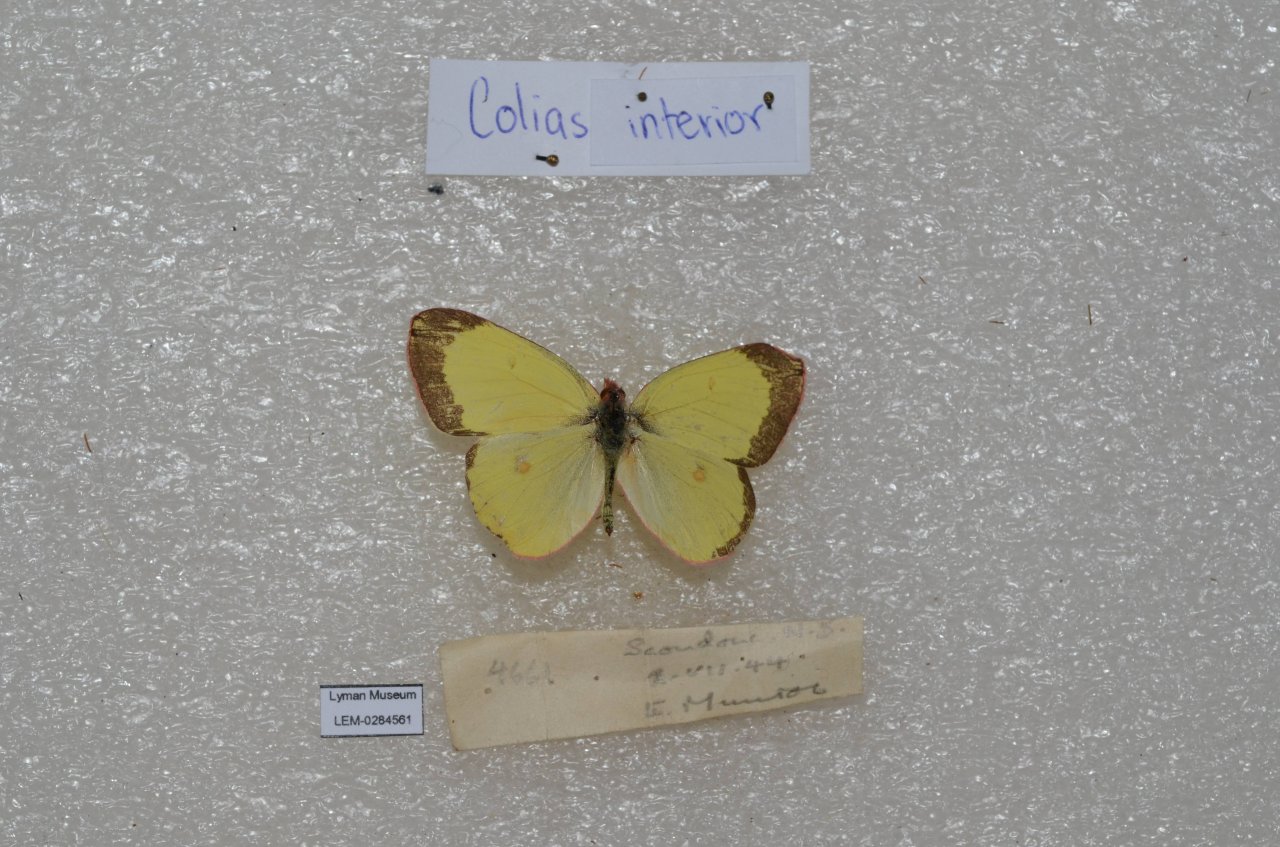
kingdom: Animalia
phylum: Arthropoda
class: Insecta
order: Lepidoptera
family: Pieridae
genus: Colias
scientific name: Colias interior
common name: Pink-edged Sulphur
